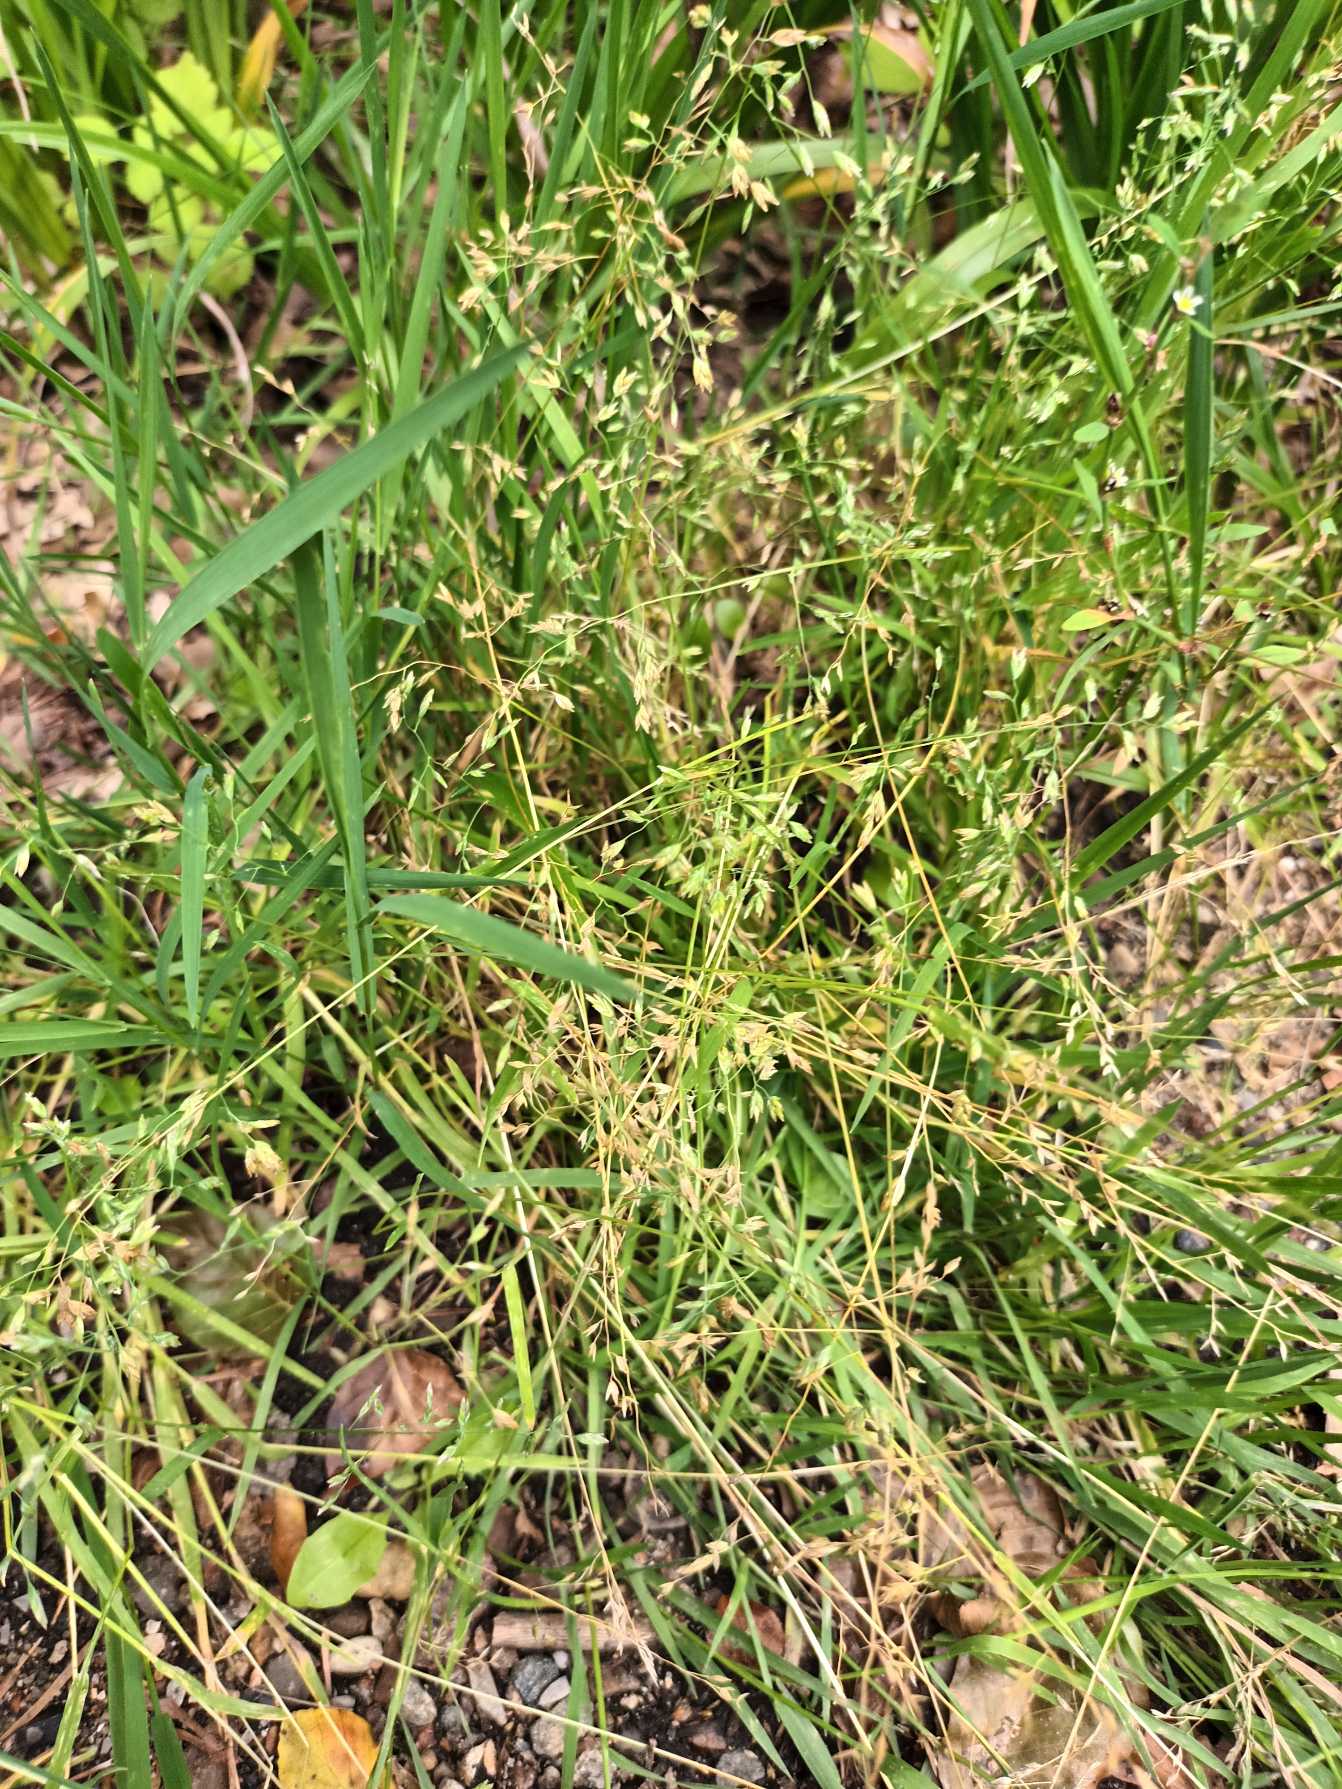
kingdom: Plantae
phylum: Tracheophyta
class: Liliopsida
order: Poales
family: Poaceae
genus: Poa
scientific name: Poa annua
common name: Enårig rapgræs
